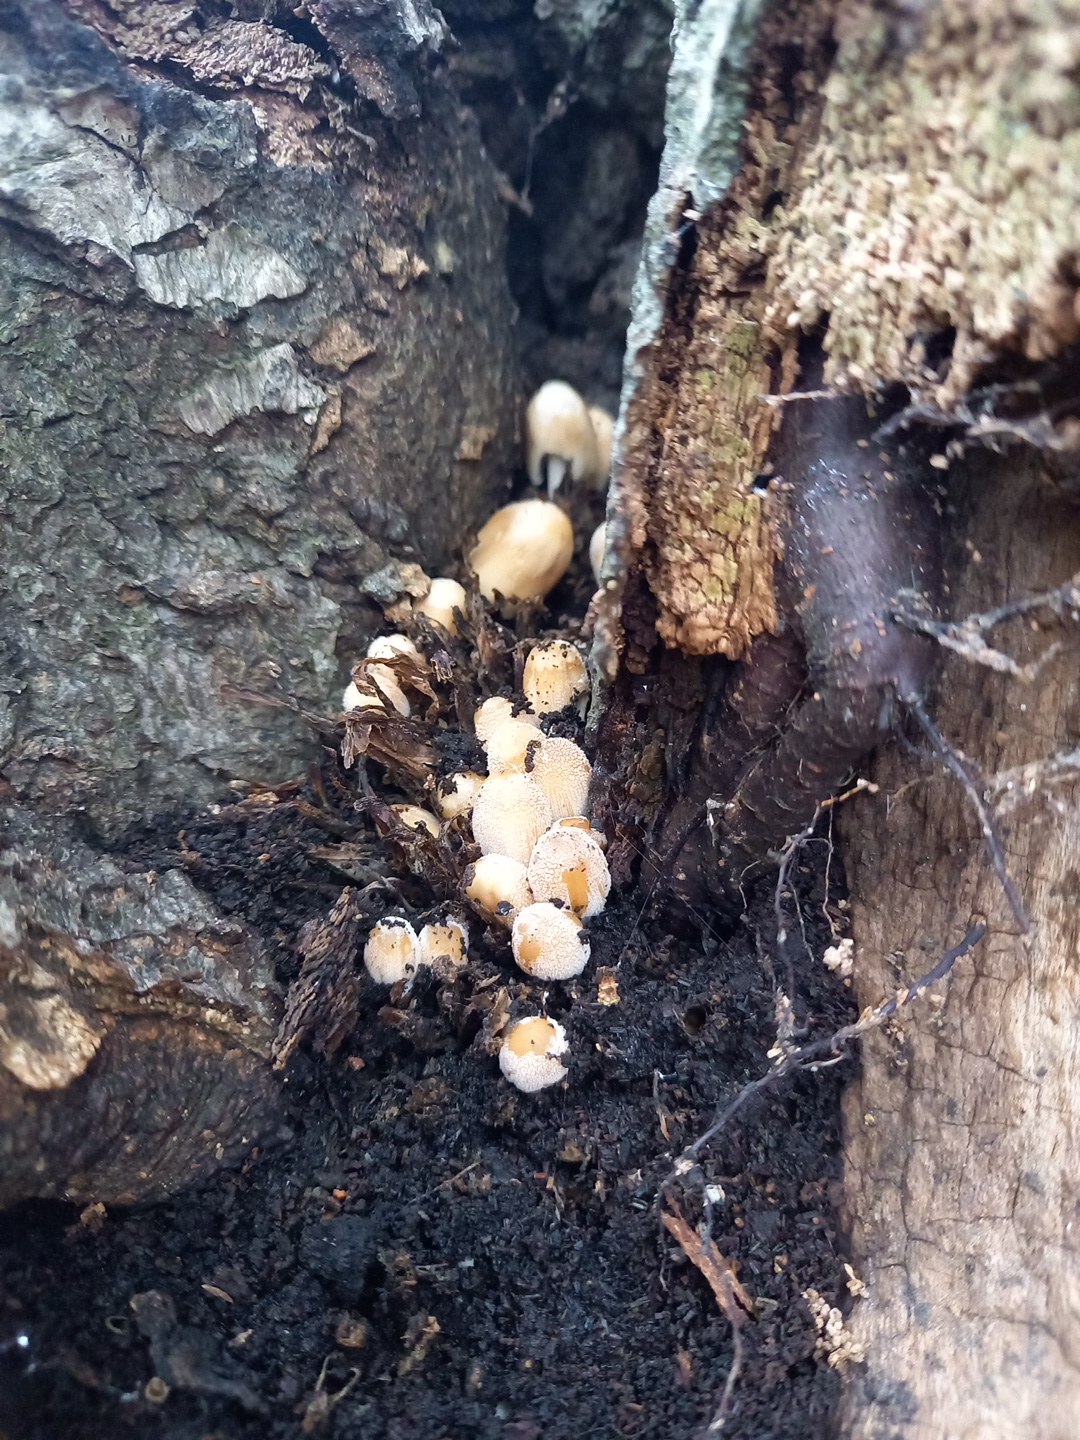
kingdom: Fungi
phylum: Basidiomycota
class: Agaricomycetes
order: Agaricales
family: Psathyrellaceae
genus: Coprinellus
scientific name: Coprinellus micaceus
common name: glimmer-blækhat
